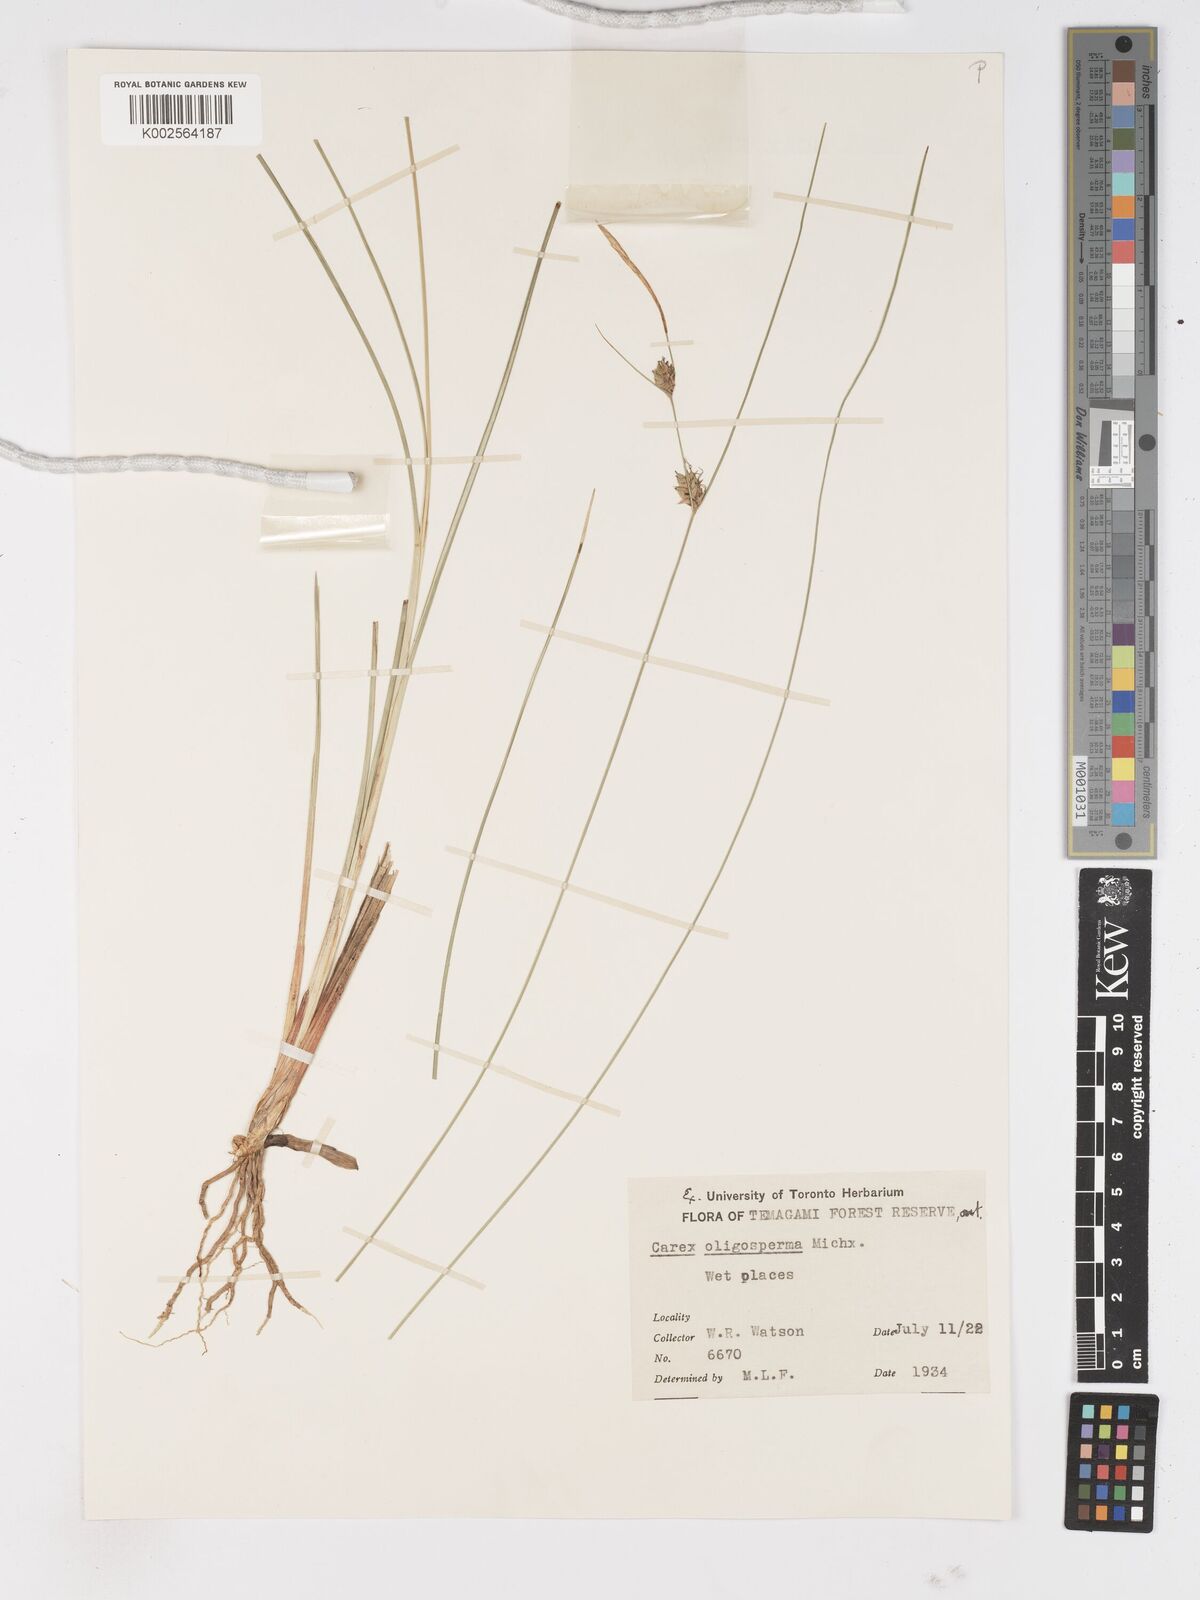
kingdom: Plantae
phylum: Tracheophyta
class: Liliopsida
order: Poales
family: Cyperaceae
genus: Carex
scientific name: Carex oligosperma
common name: Few-seed sedge
